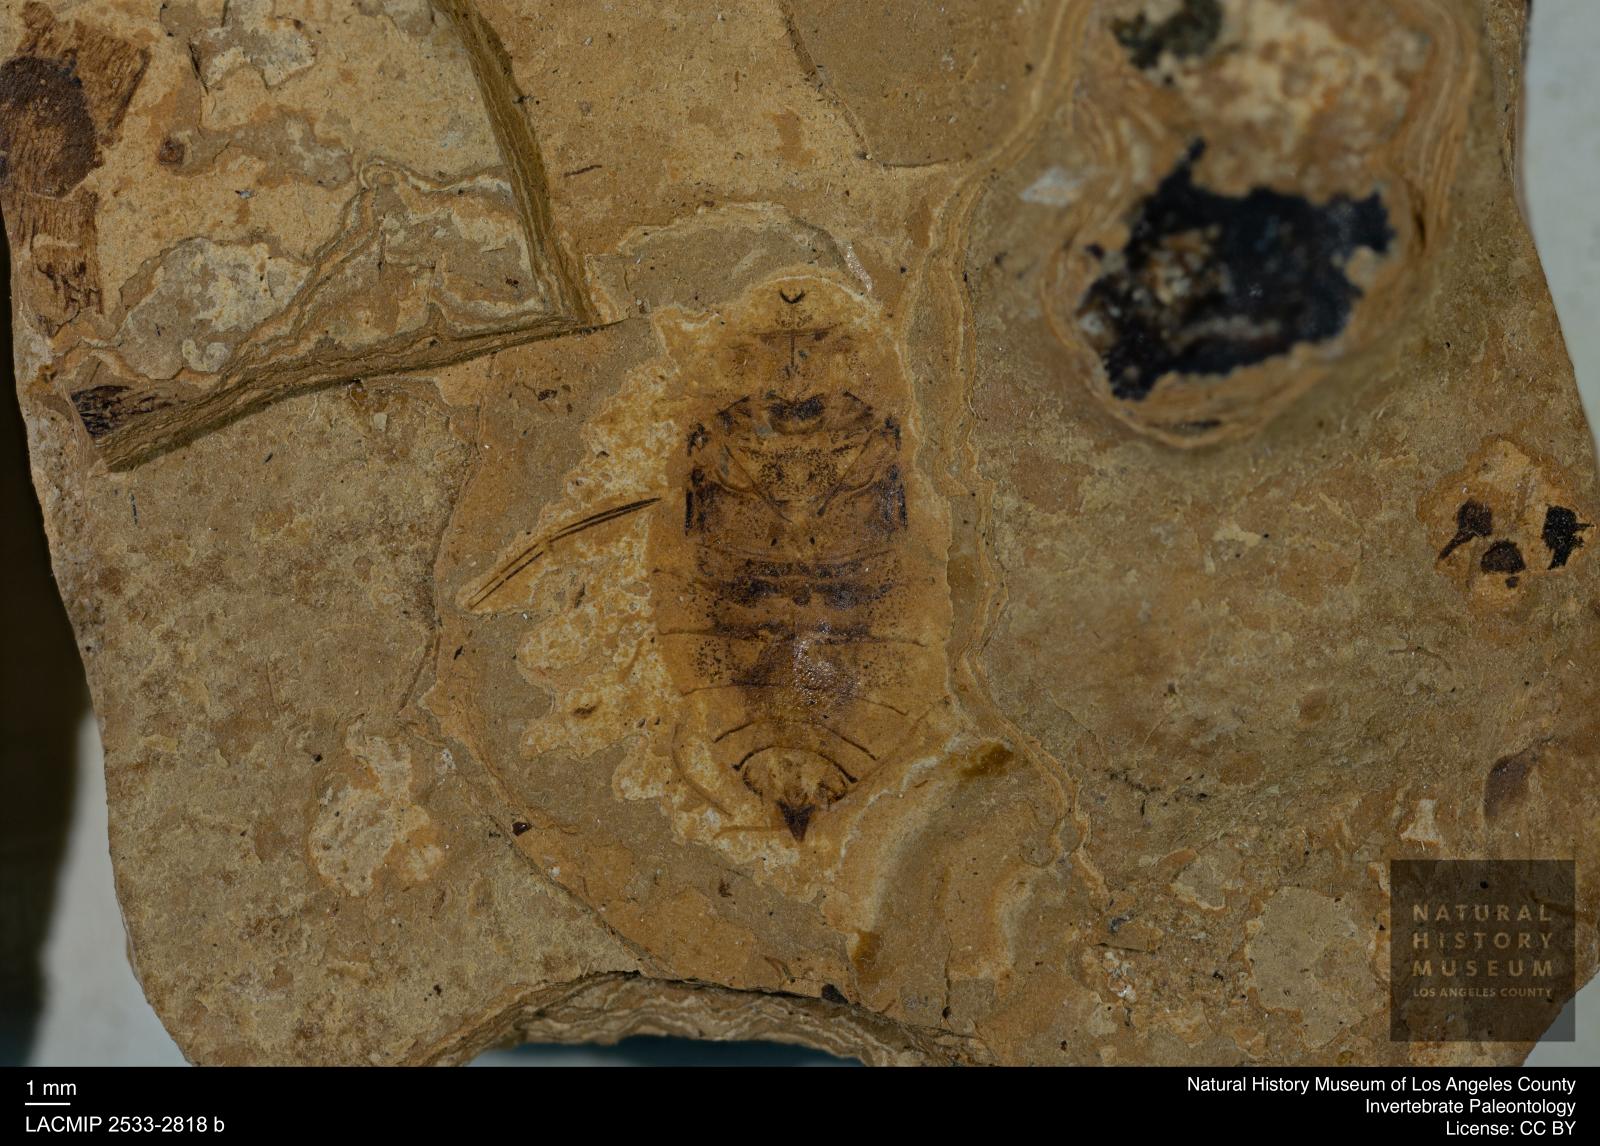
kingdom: Animalia
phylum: Arthropoda
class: Insecta
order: Hemiptera
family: Naucoridae
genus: Naucoris
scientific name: Naucoris rottensis
